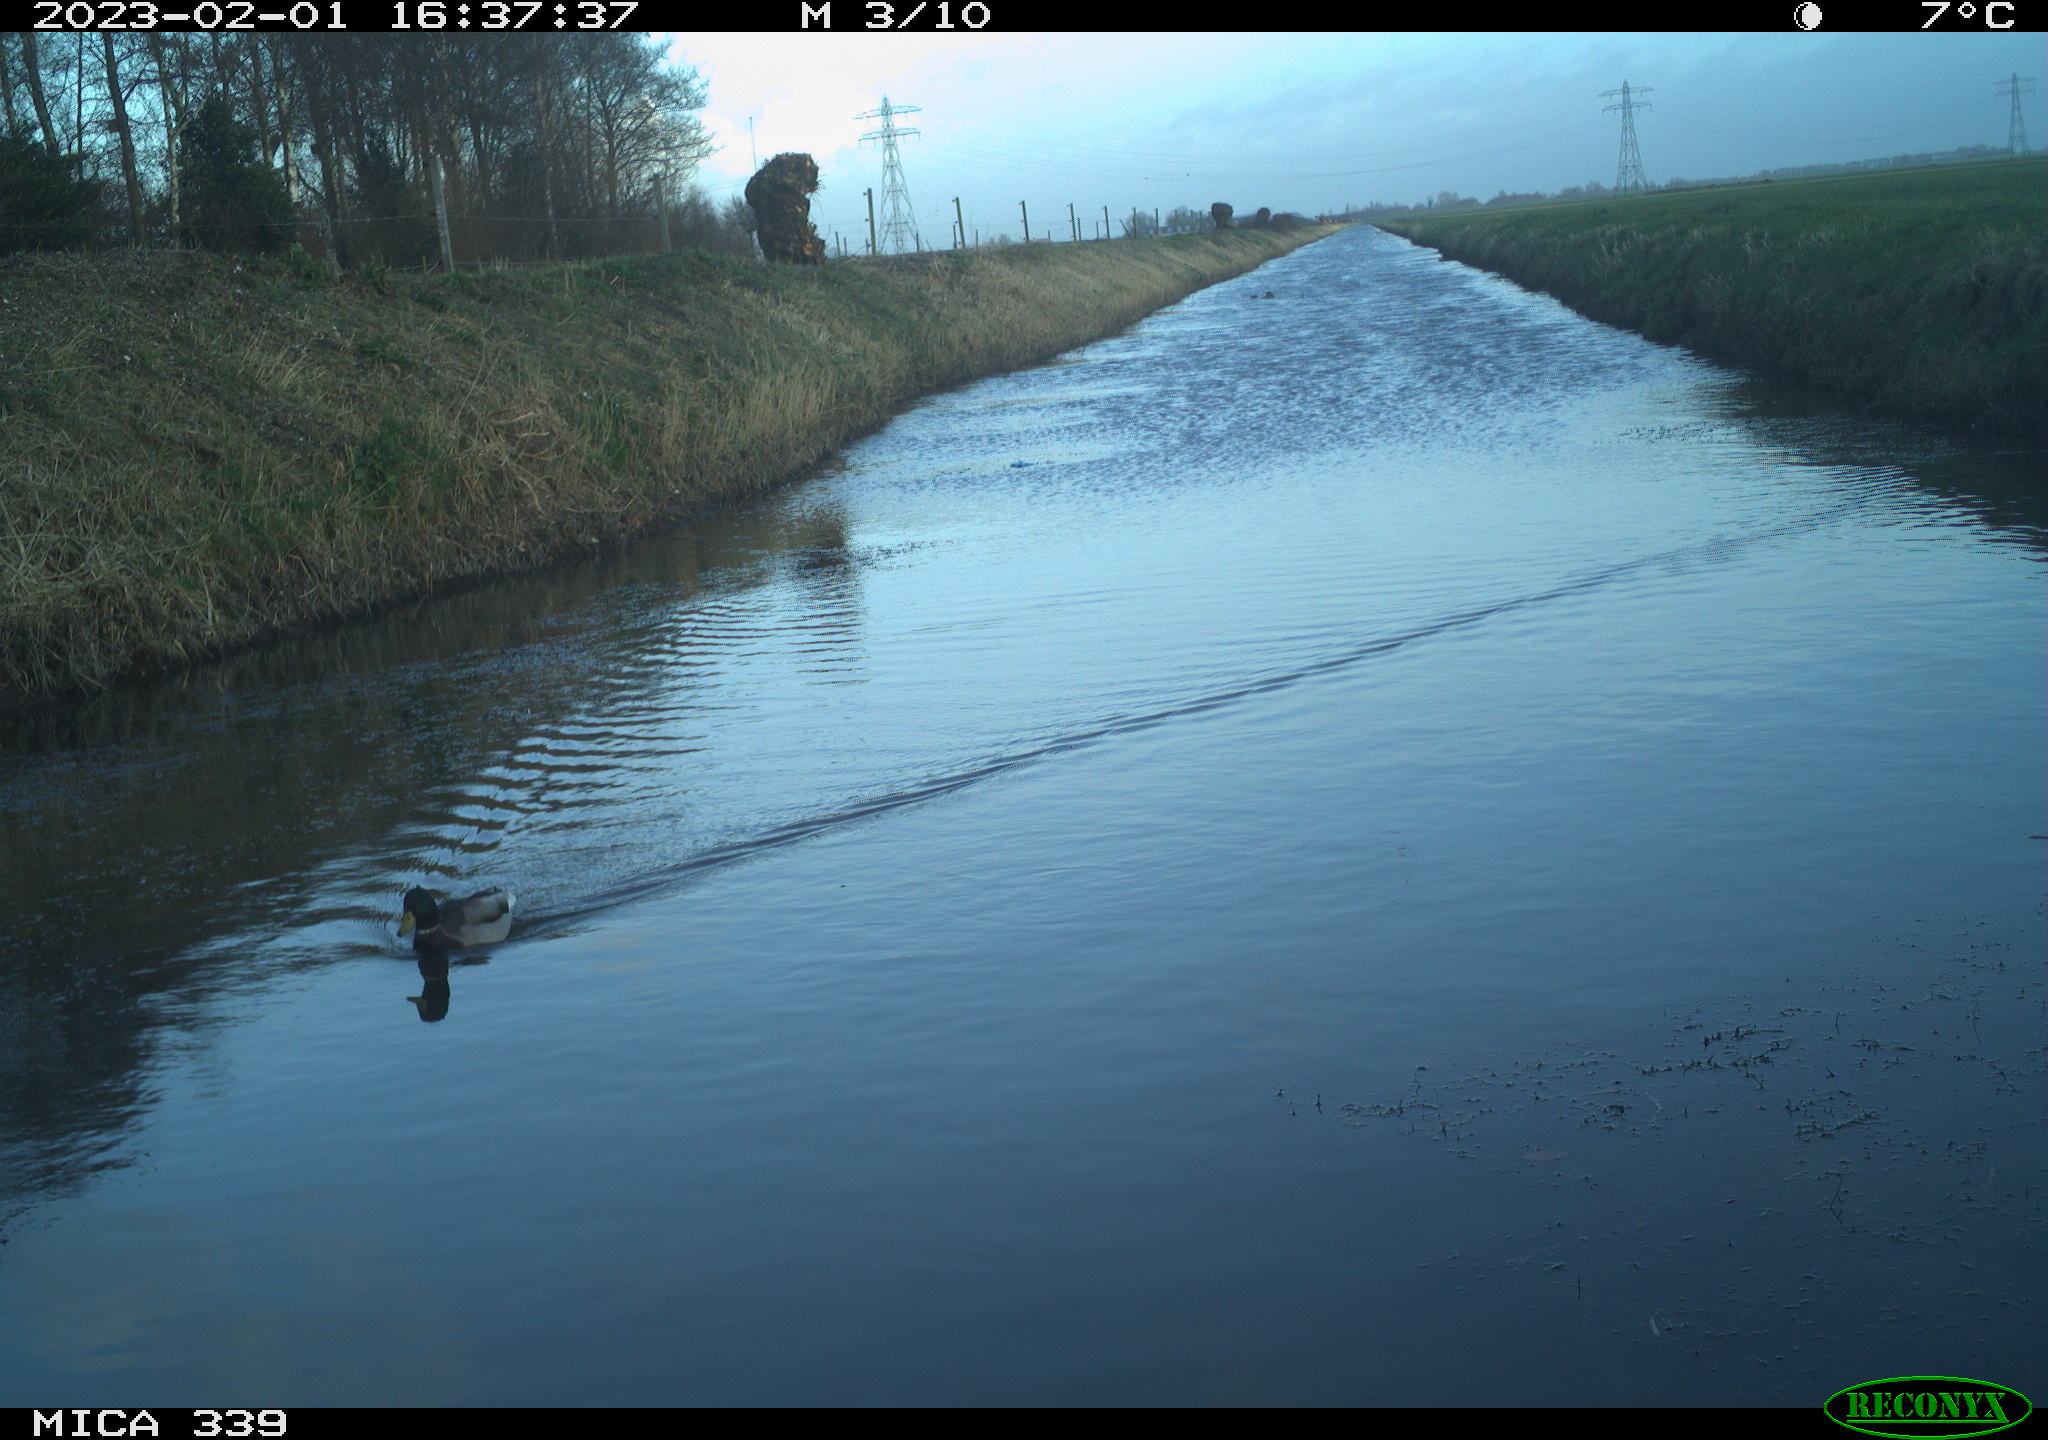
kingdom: Animalia
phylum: Chordata
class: Aves
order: Anseriformes
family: Anatidae
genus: Anas
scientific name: Anas
